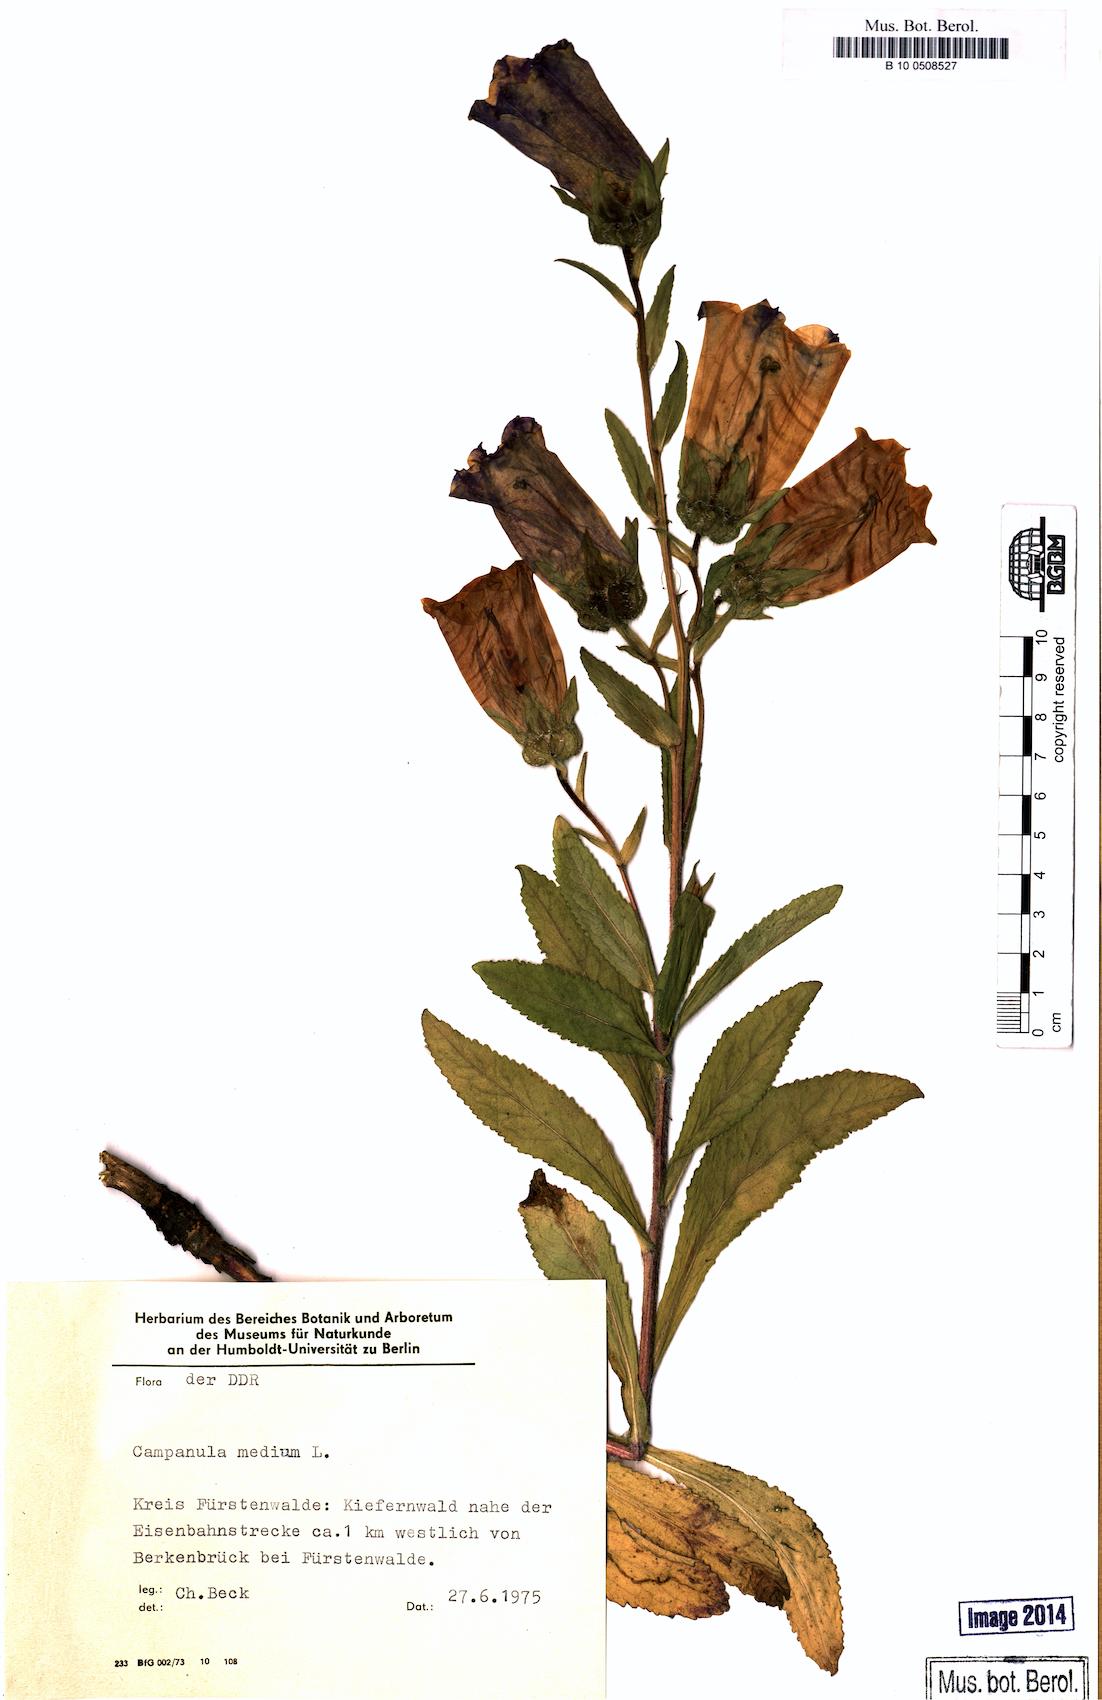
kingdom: Plantae
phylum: Tracheophyta
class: Magnoliopsida
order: Asterales
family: Campanulaceae
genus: Campanula
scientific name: Campanula medium
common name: Canterbury bells
